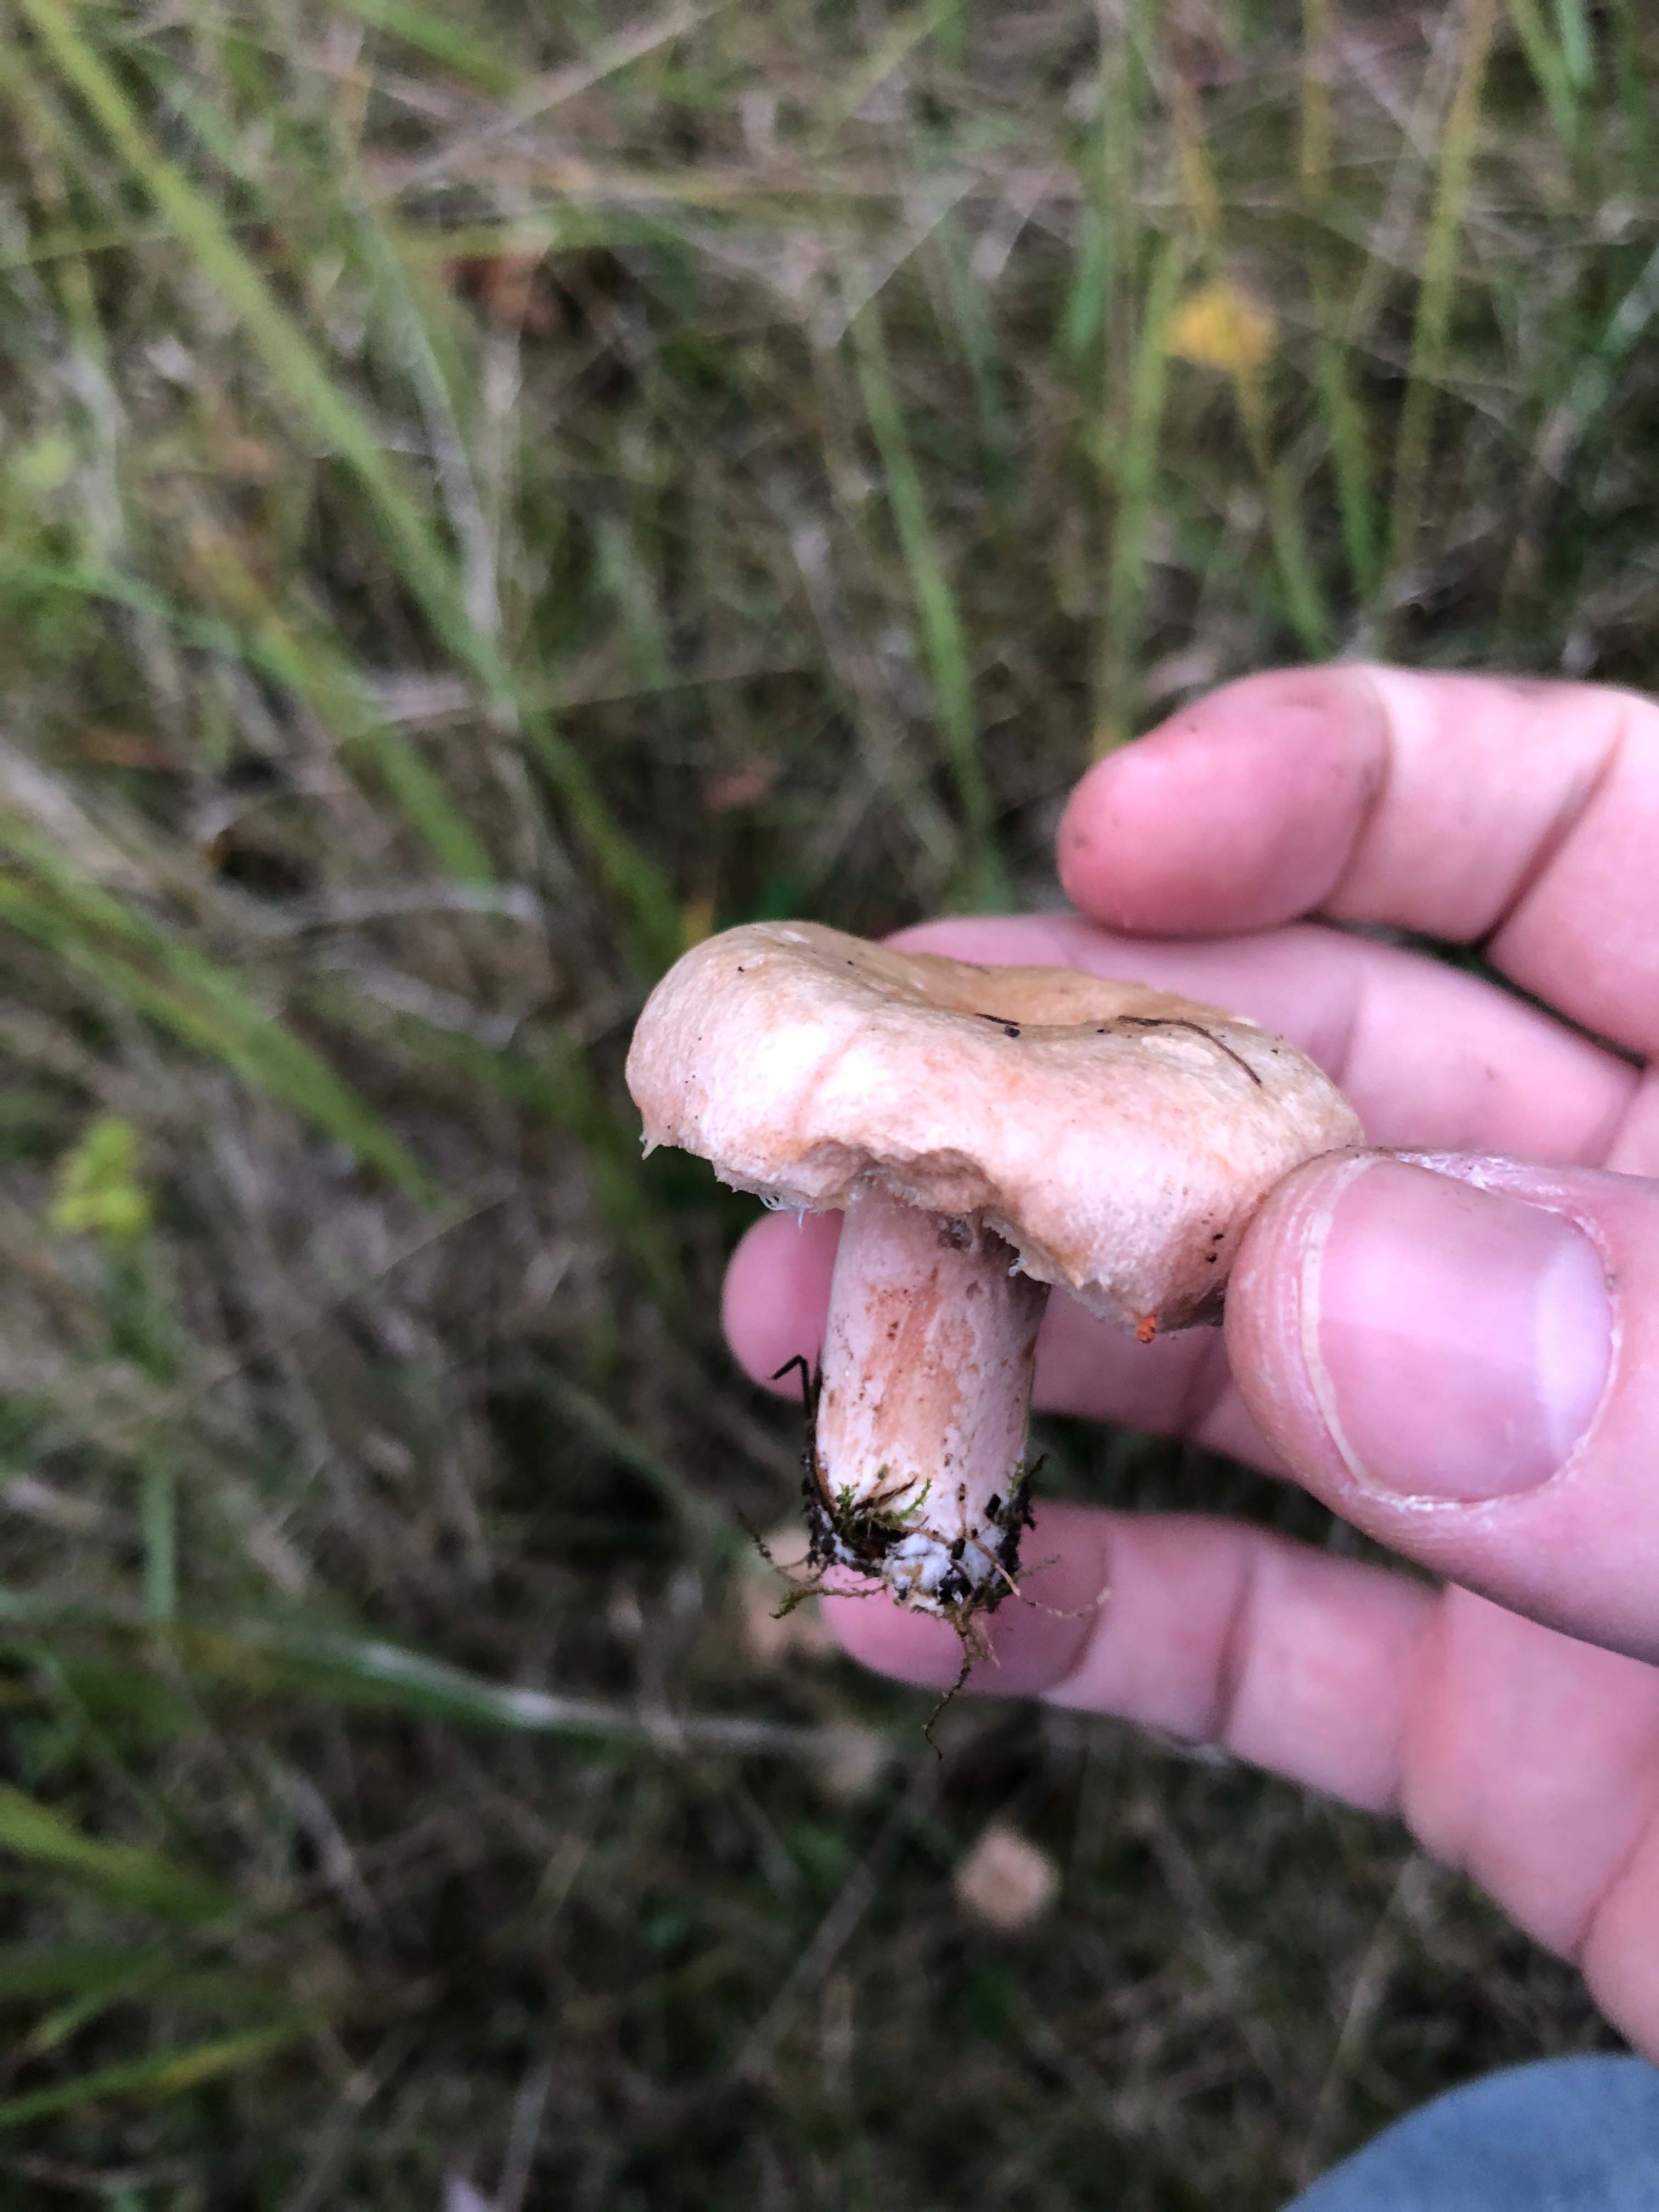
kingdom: Fungi
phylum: Basidiomycota
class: Agaricomycetes
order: Russulales
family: Russulaceae
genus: Lactarius
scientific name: Lactarius torminosus
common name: skægget mælkehat
